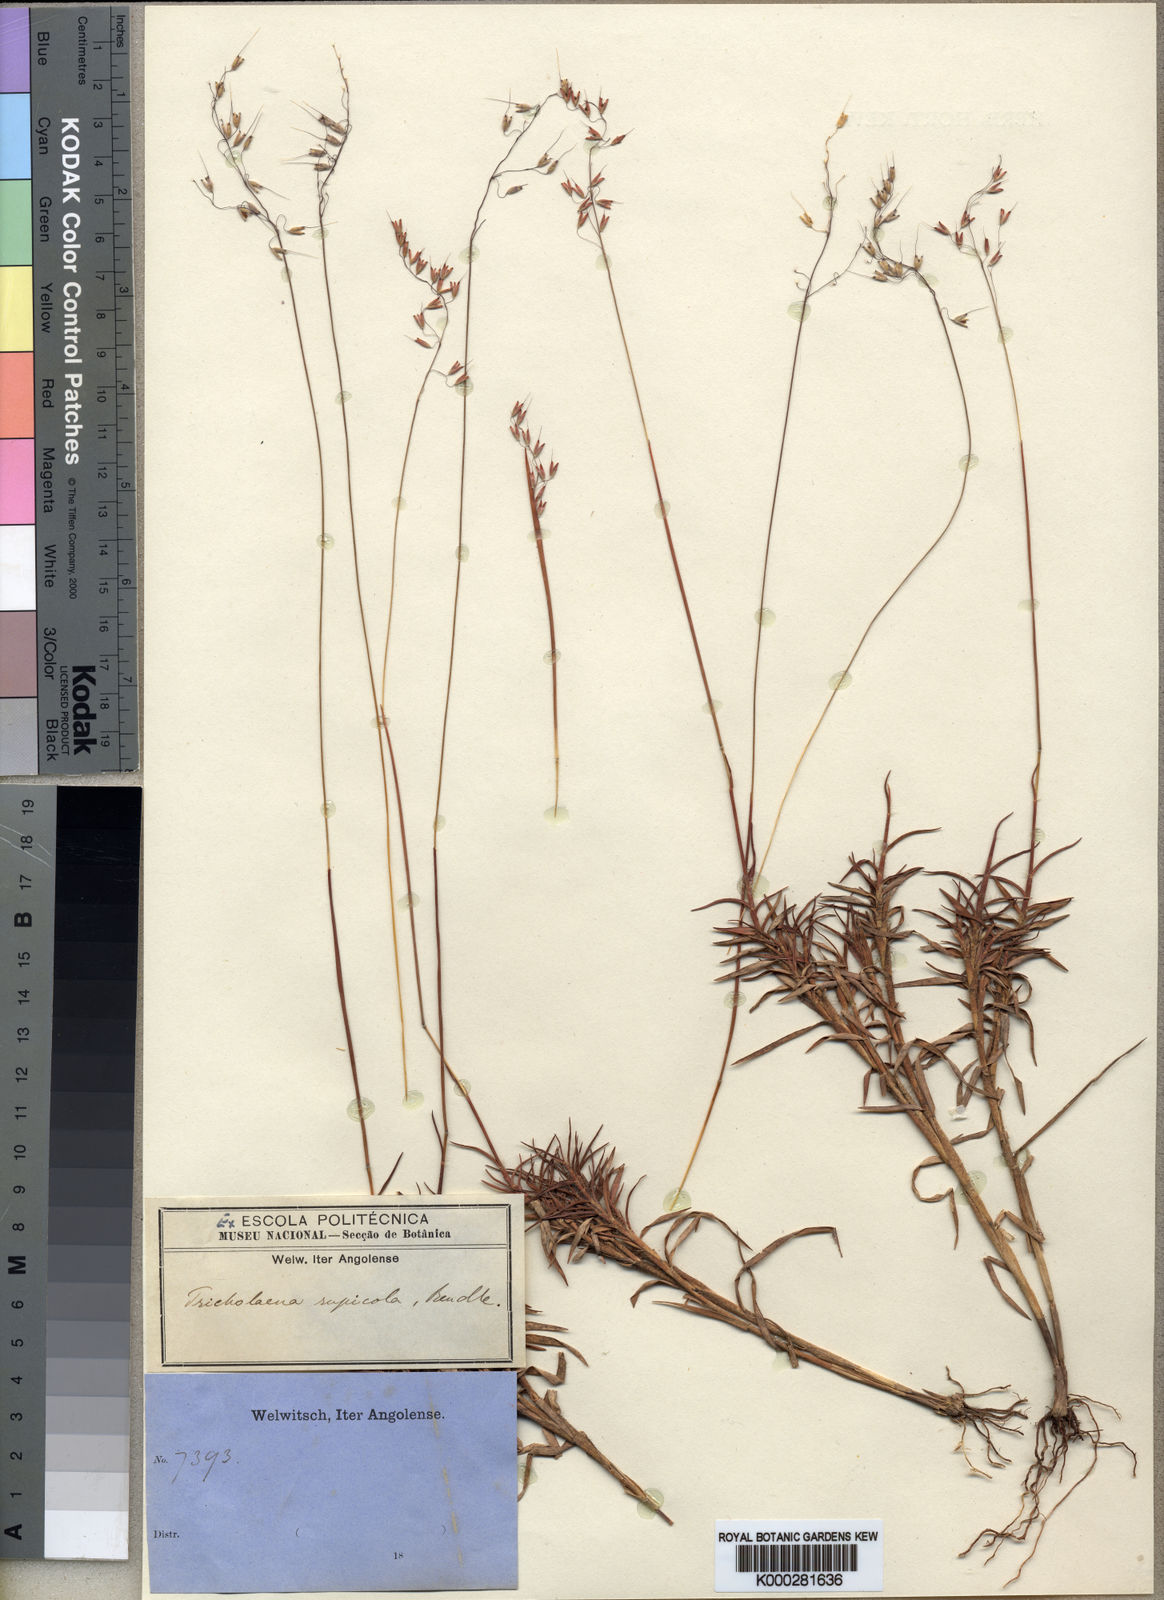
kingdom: Plantae
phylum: Tracheophyta
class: Liliopsida
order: Poales
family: Poaceae
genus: Melinis
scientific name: Melinis rupicola
